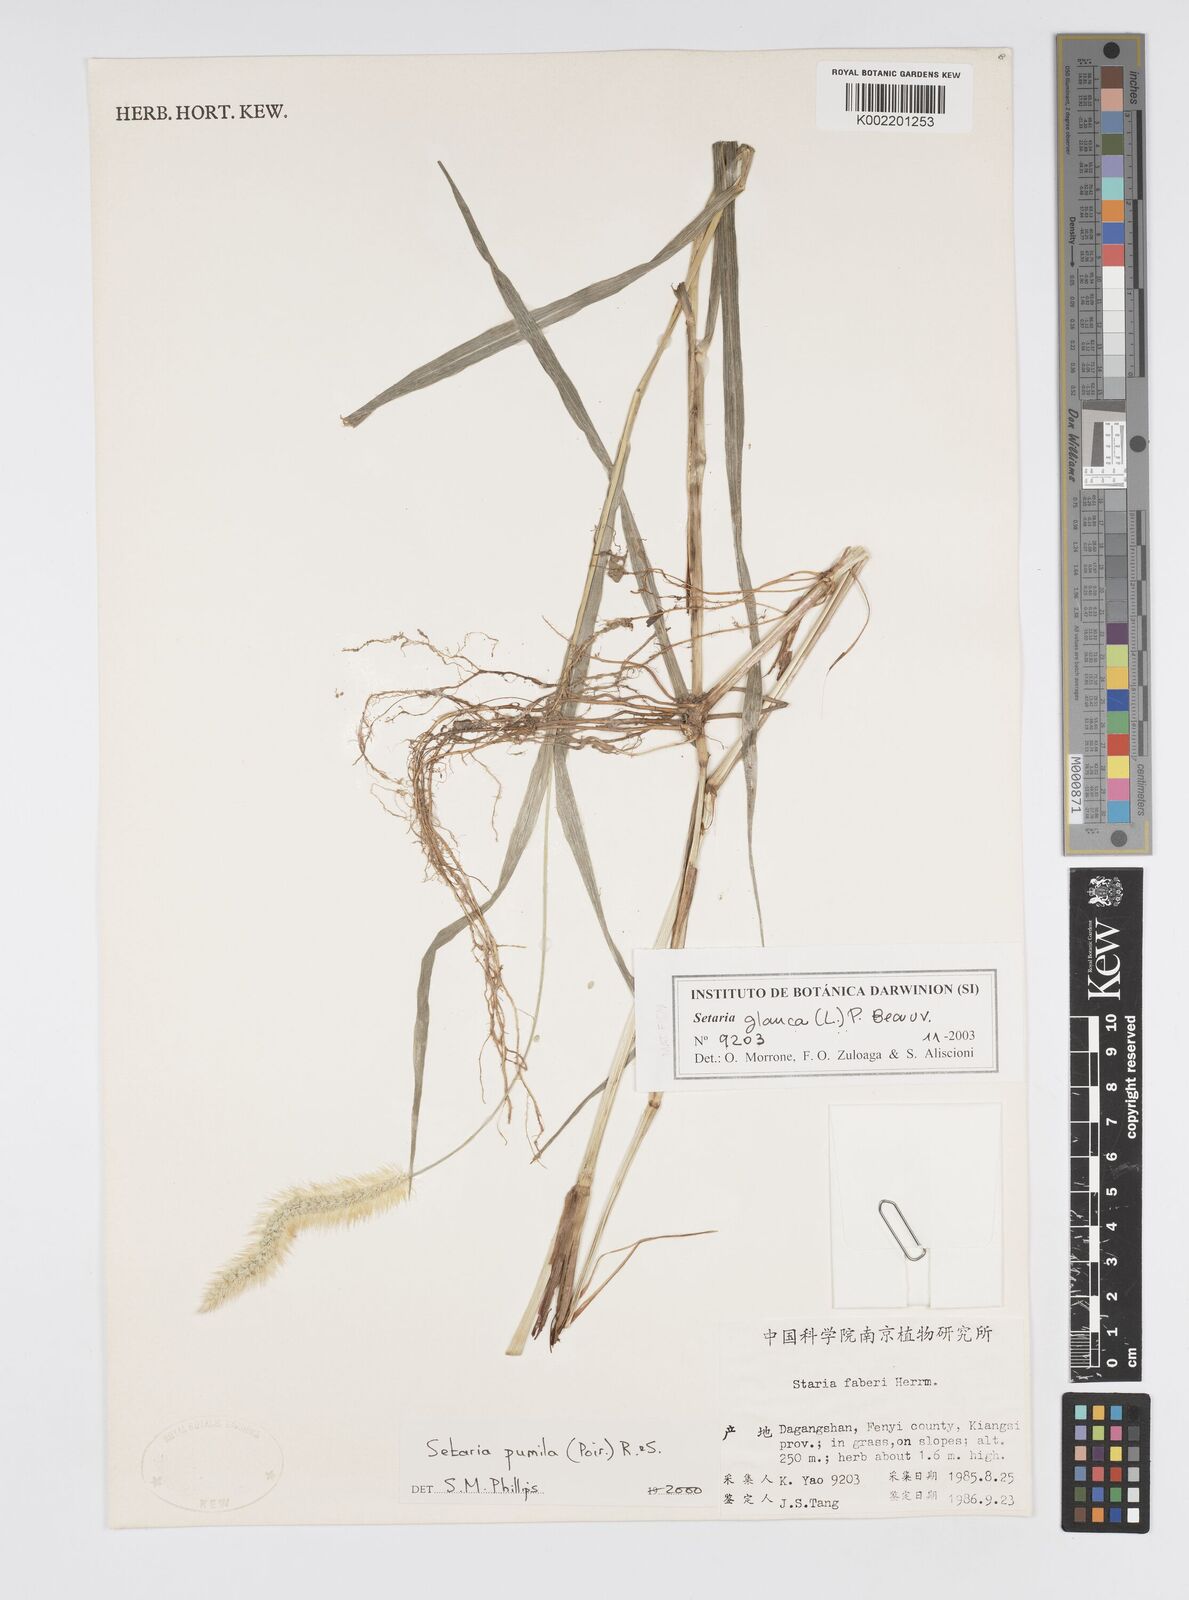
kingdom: Plantae
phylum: Tracheophyta
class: Liliopsida
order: Poales
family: Poaceae
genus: Cenchrus
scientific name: Cenchrus americanus
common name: Pearl millet
